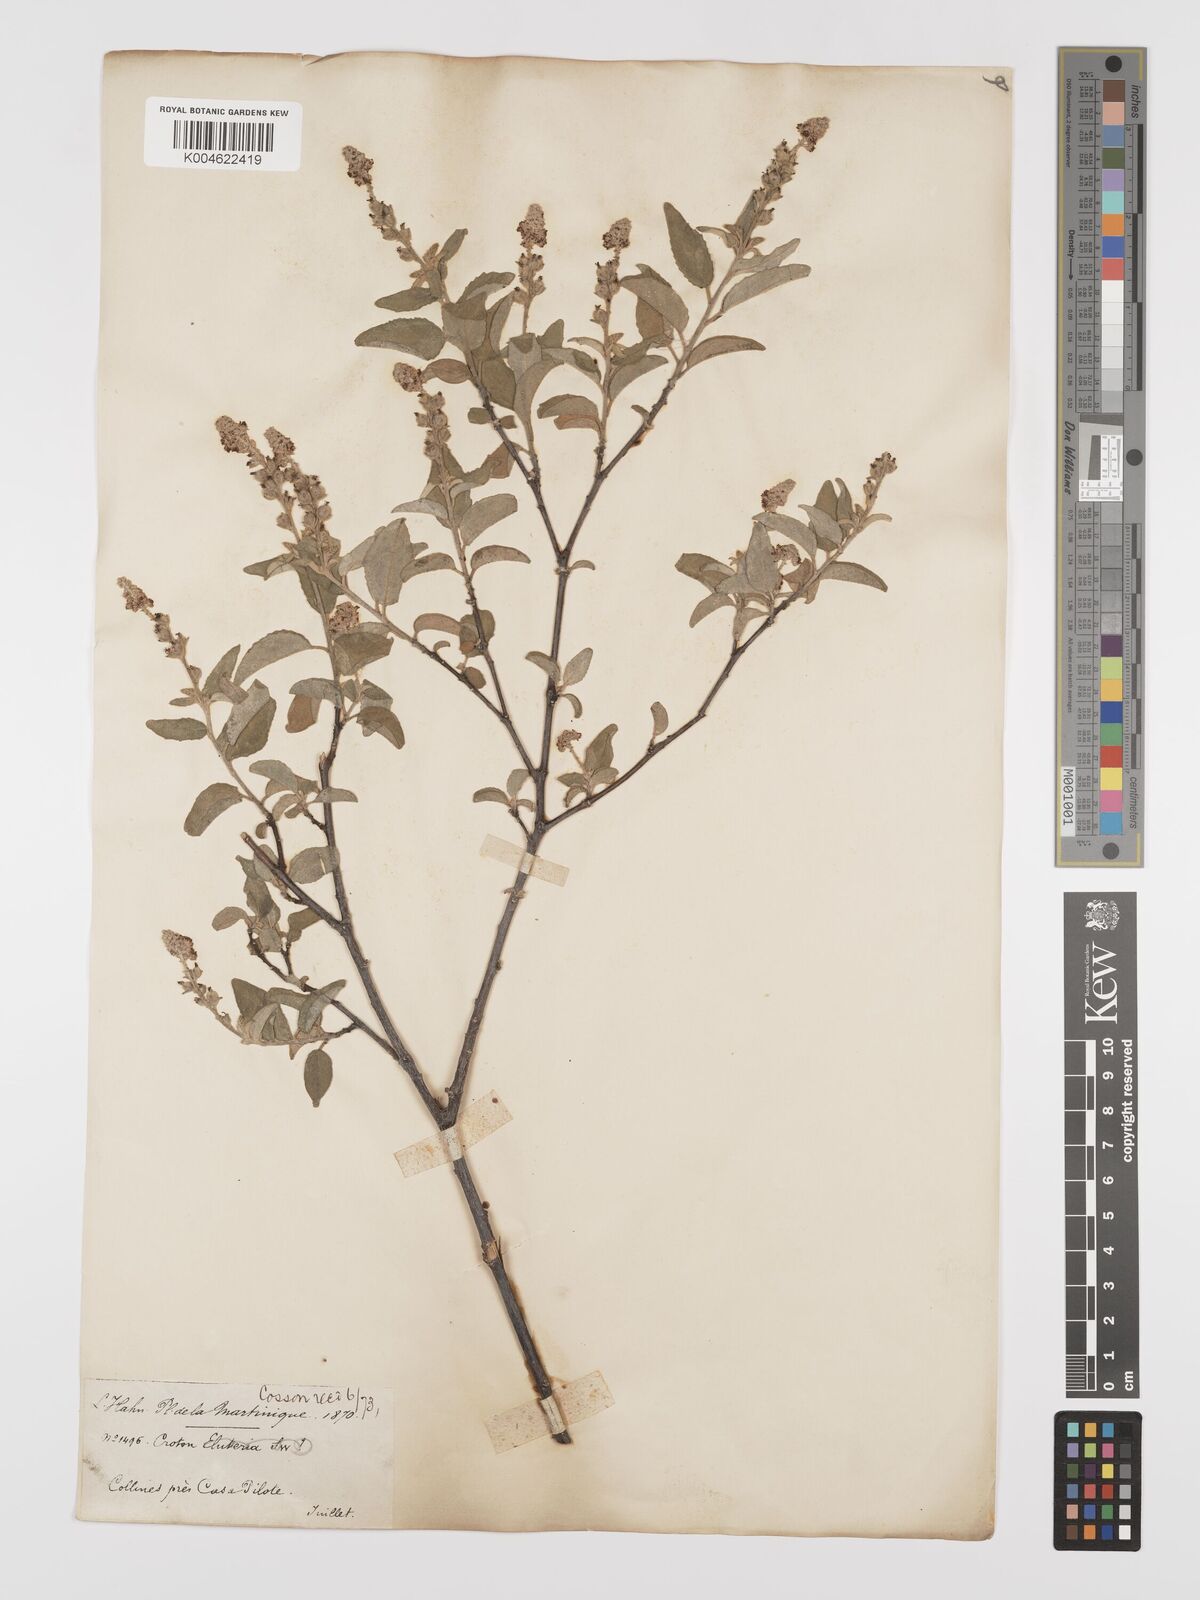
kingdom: Plantae
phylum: Tracheophyta
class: Magnoliopsida
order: Malpighiales
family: Euphorbiaceae
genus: Croton
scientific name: Croton
